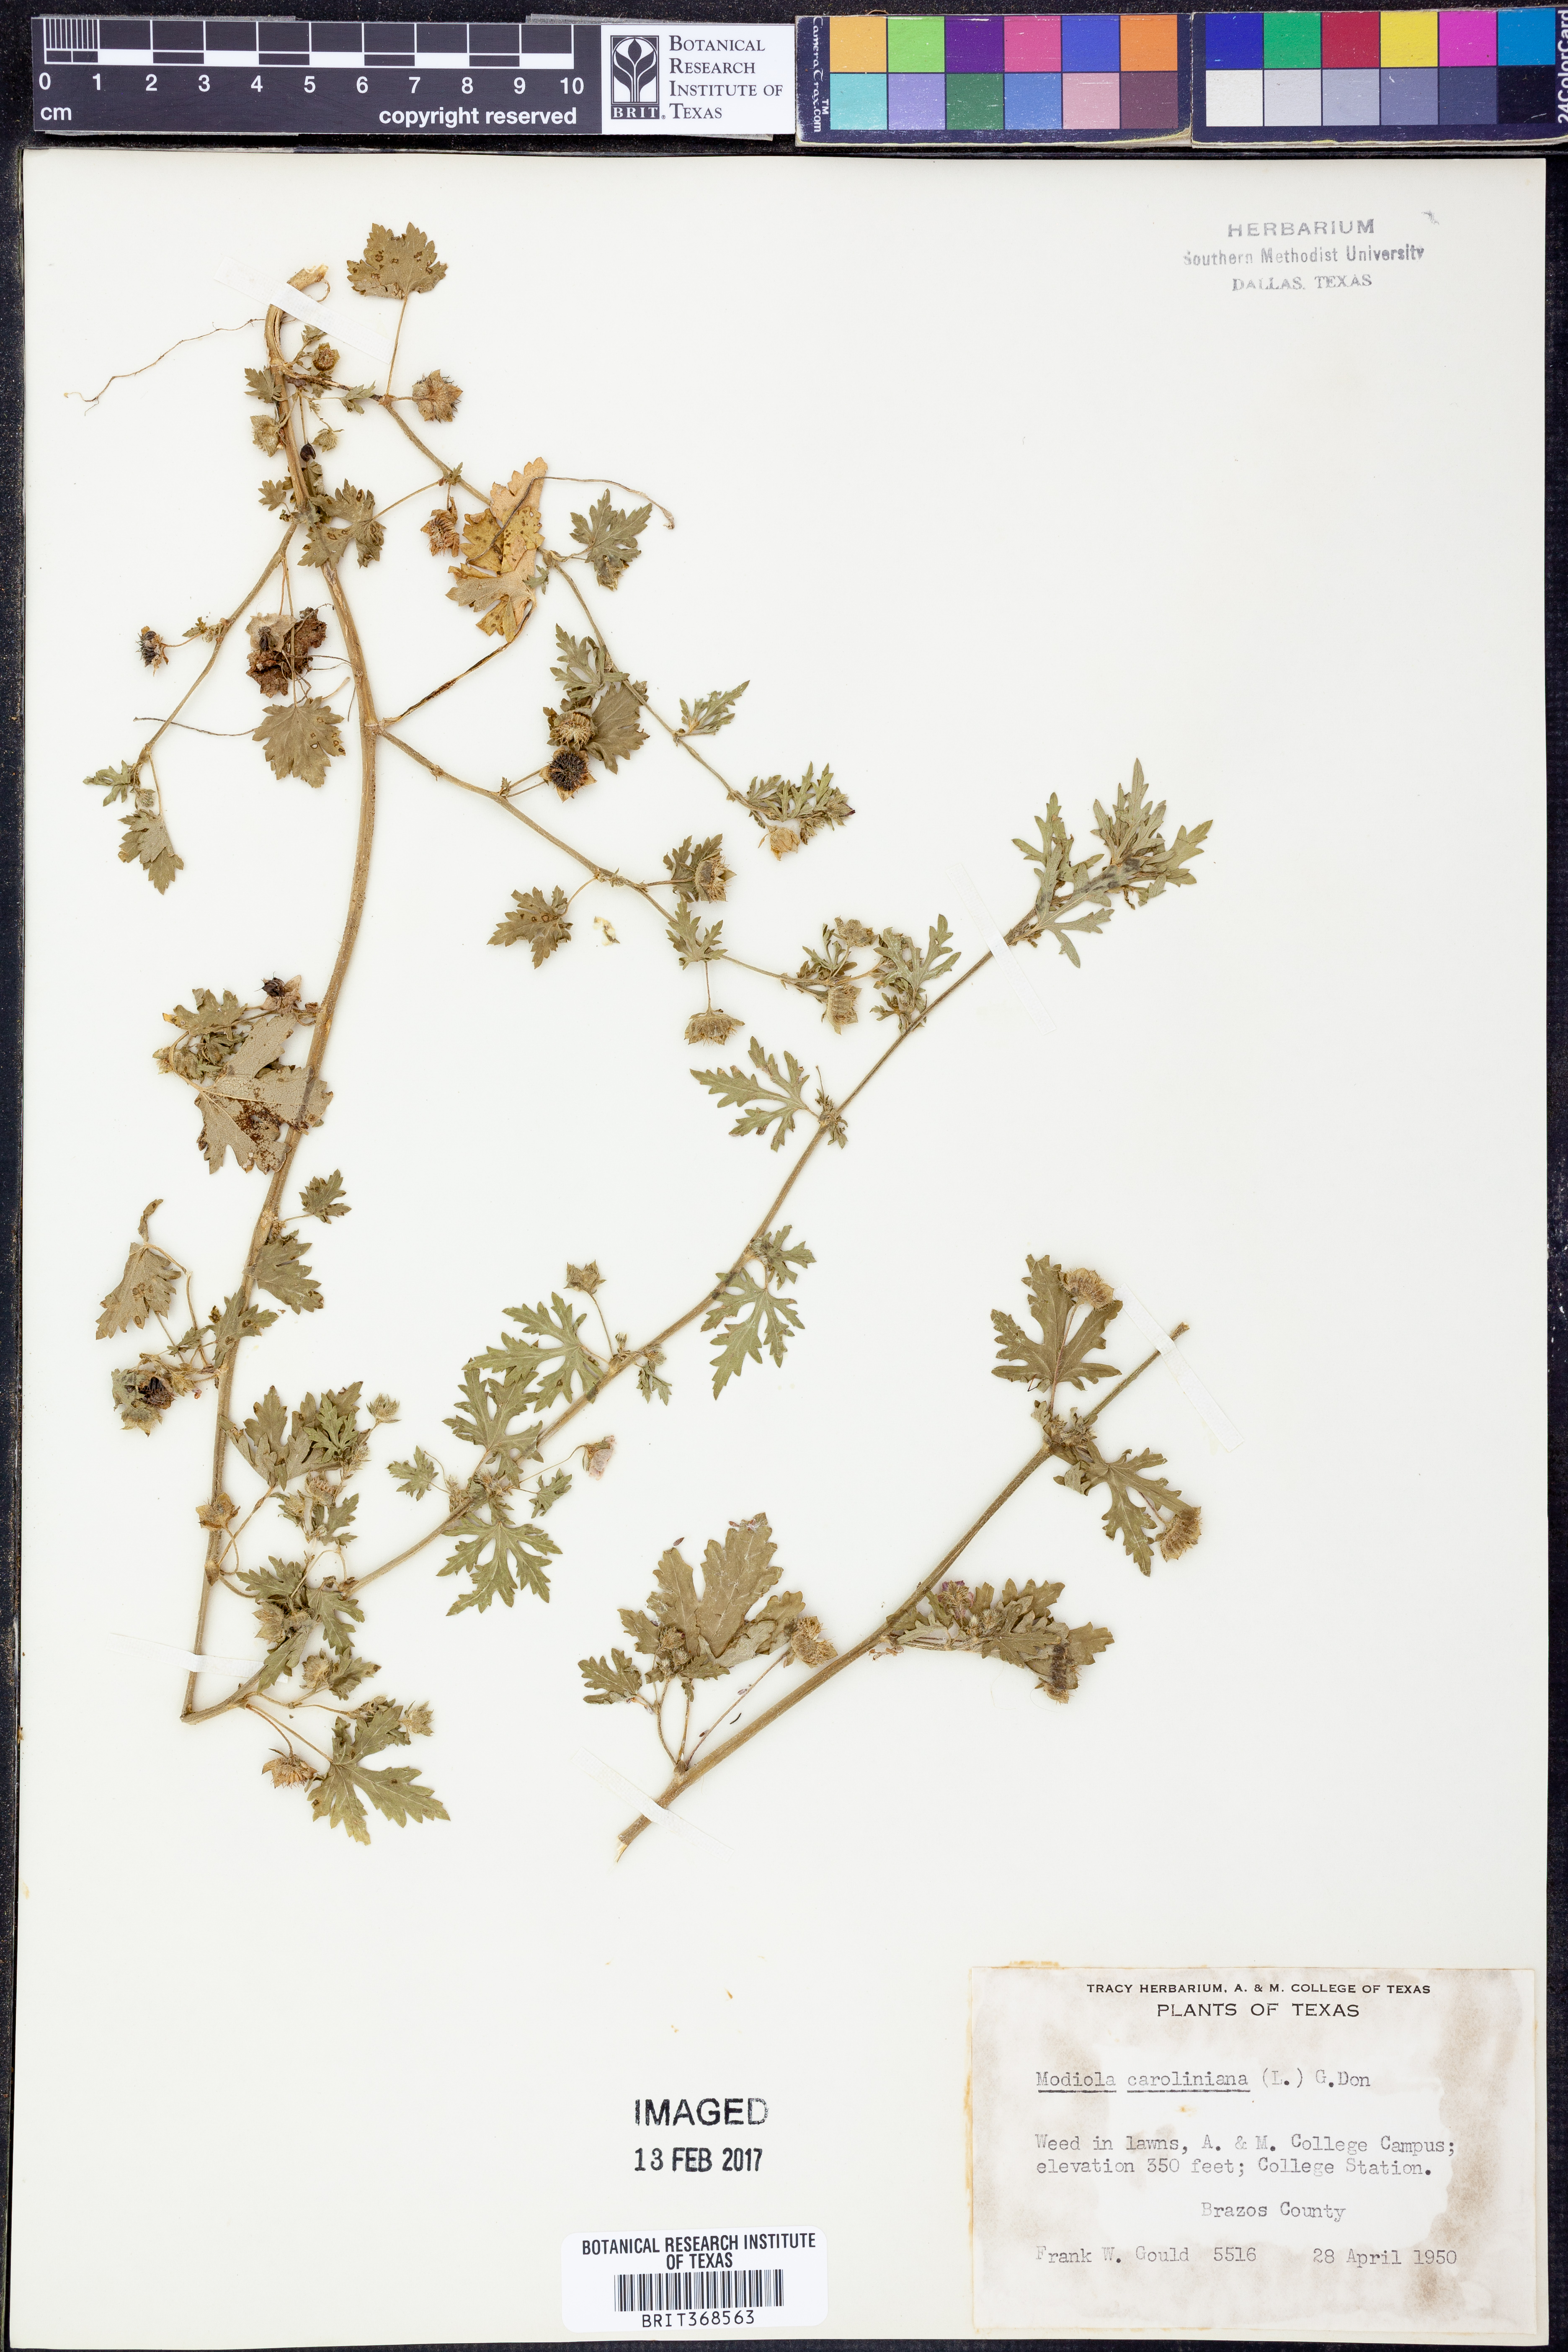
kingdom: Plantae
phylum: Tracheophyta
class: Magnoliopsida
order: Malvales
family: Malvaceae
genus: Modiola
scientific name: Modiola caroliniana
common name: Carolina bristlemallow
